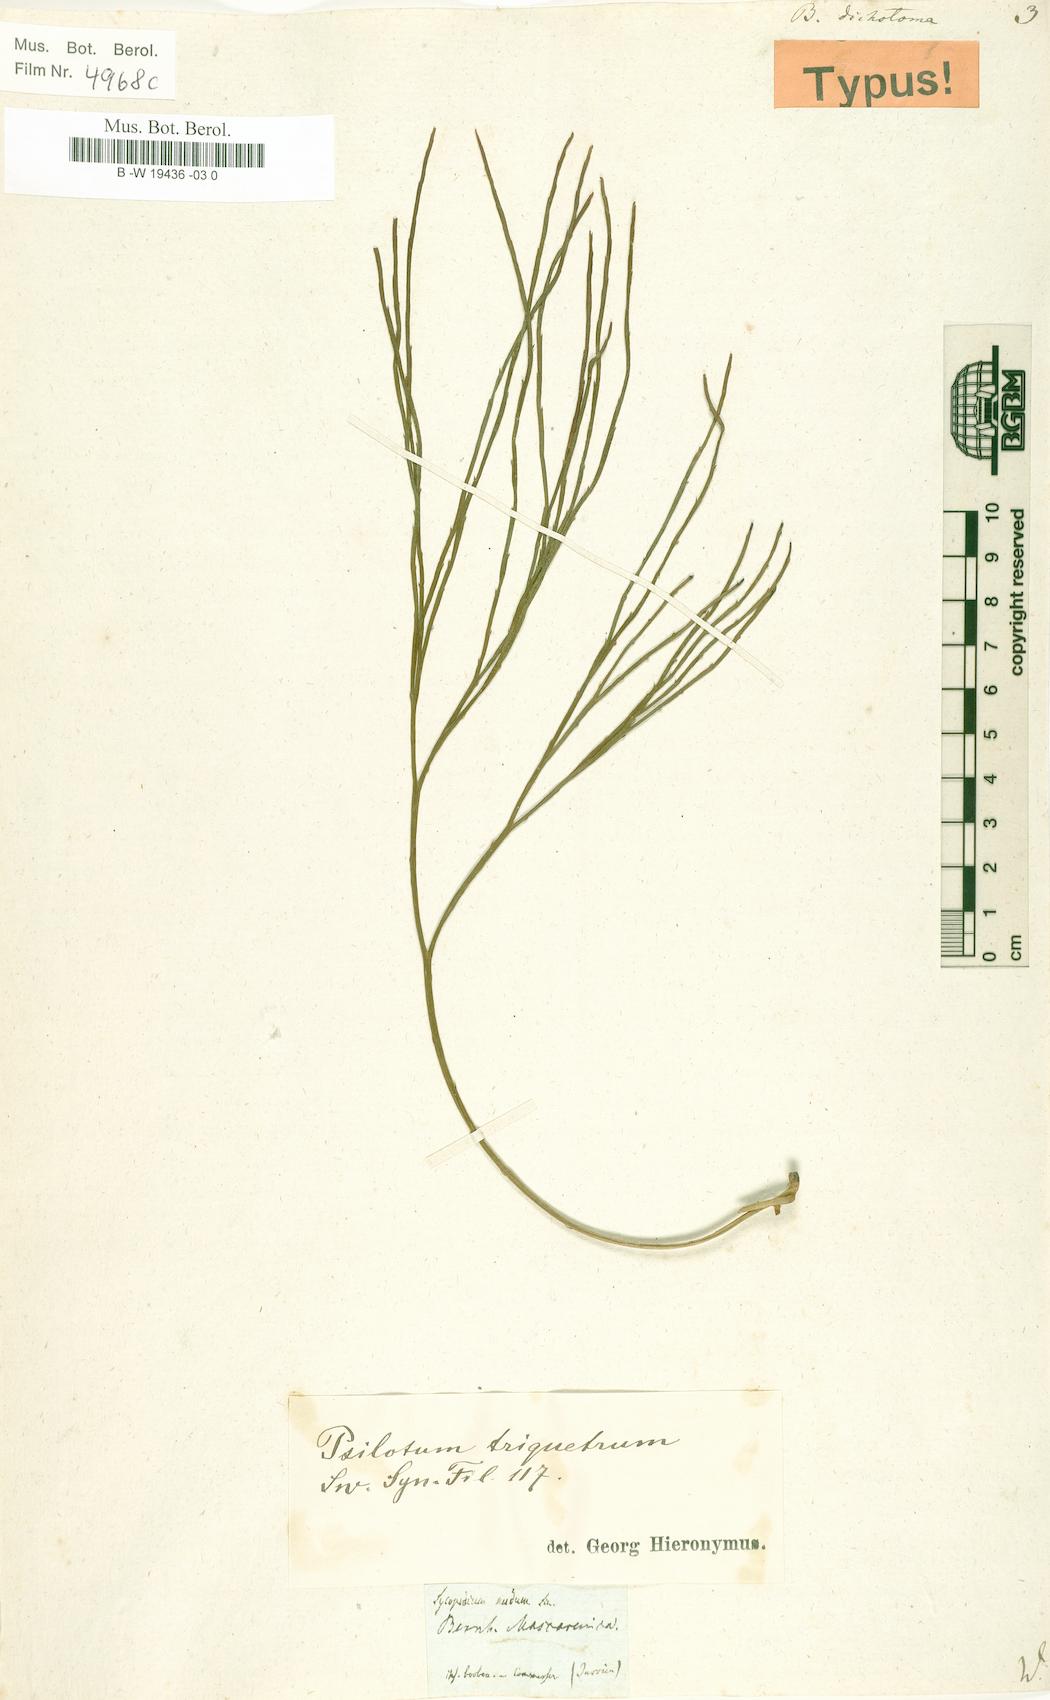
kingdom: Plantae
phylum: Tracheophyta
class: Polypodiopsida
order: Psilotales
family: Psilotaceae
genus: Psilotum
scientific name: Psilotum nudum
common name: Skeleton fork fern
